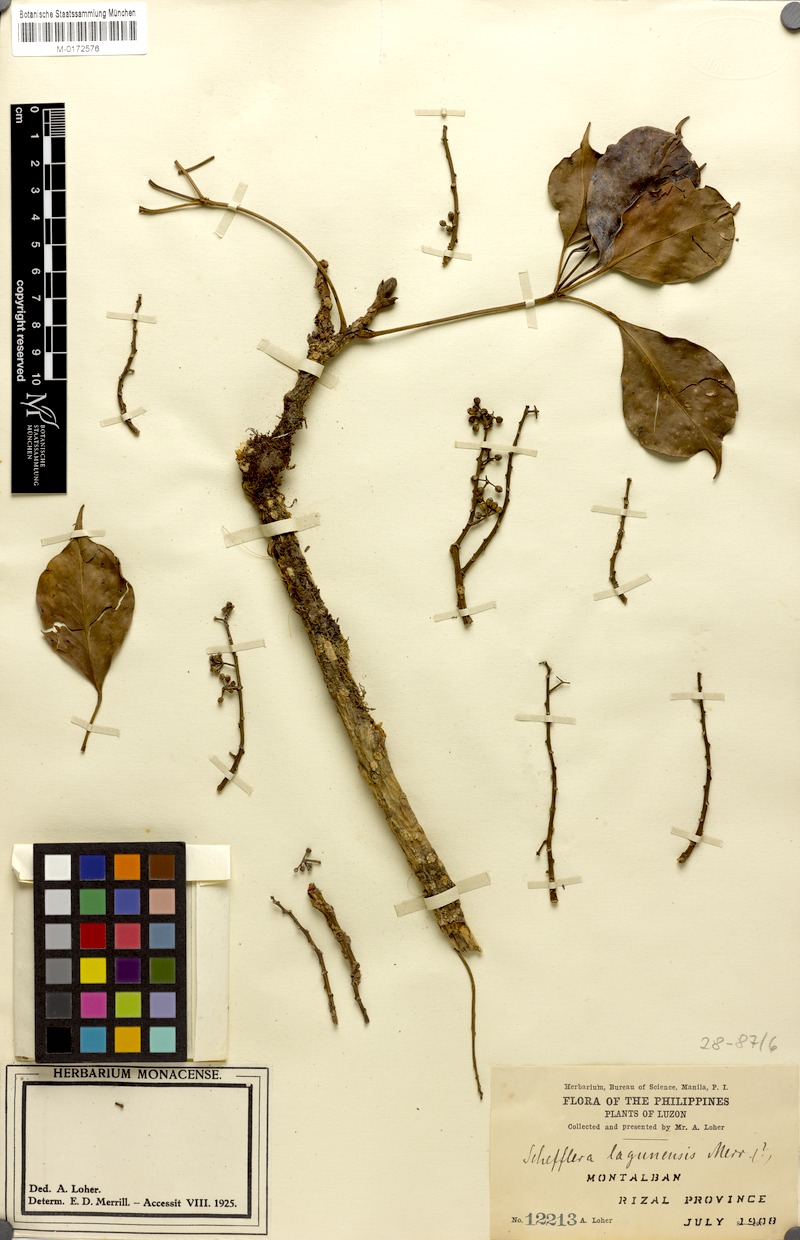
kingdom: Plantae
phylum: Tracheophyta
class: Magnoliopsida
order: Apiales
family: Araliaceae
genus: Schefflera
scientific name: Schefflera
